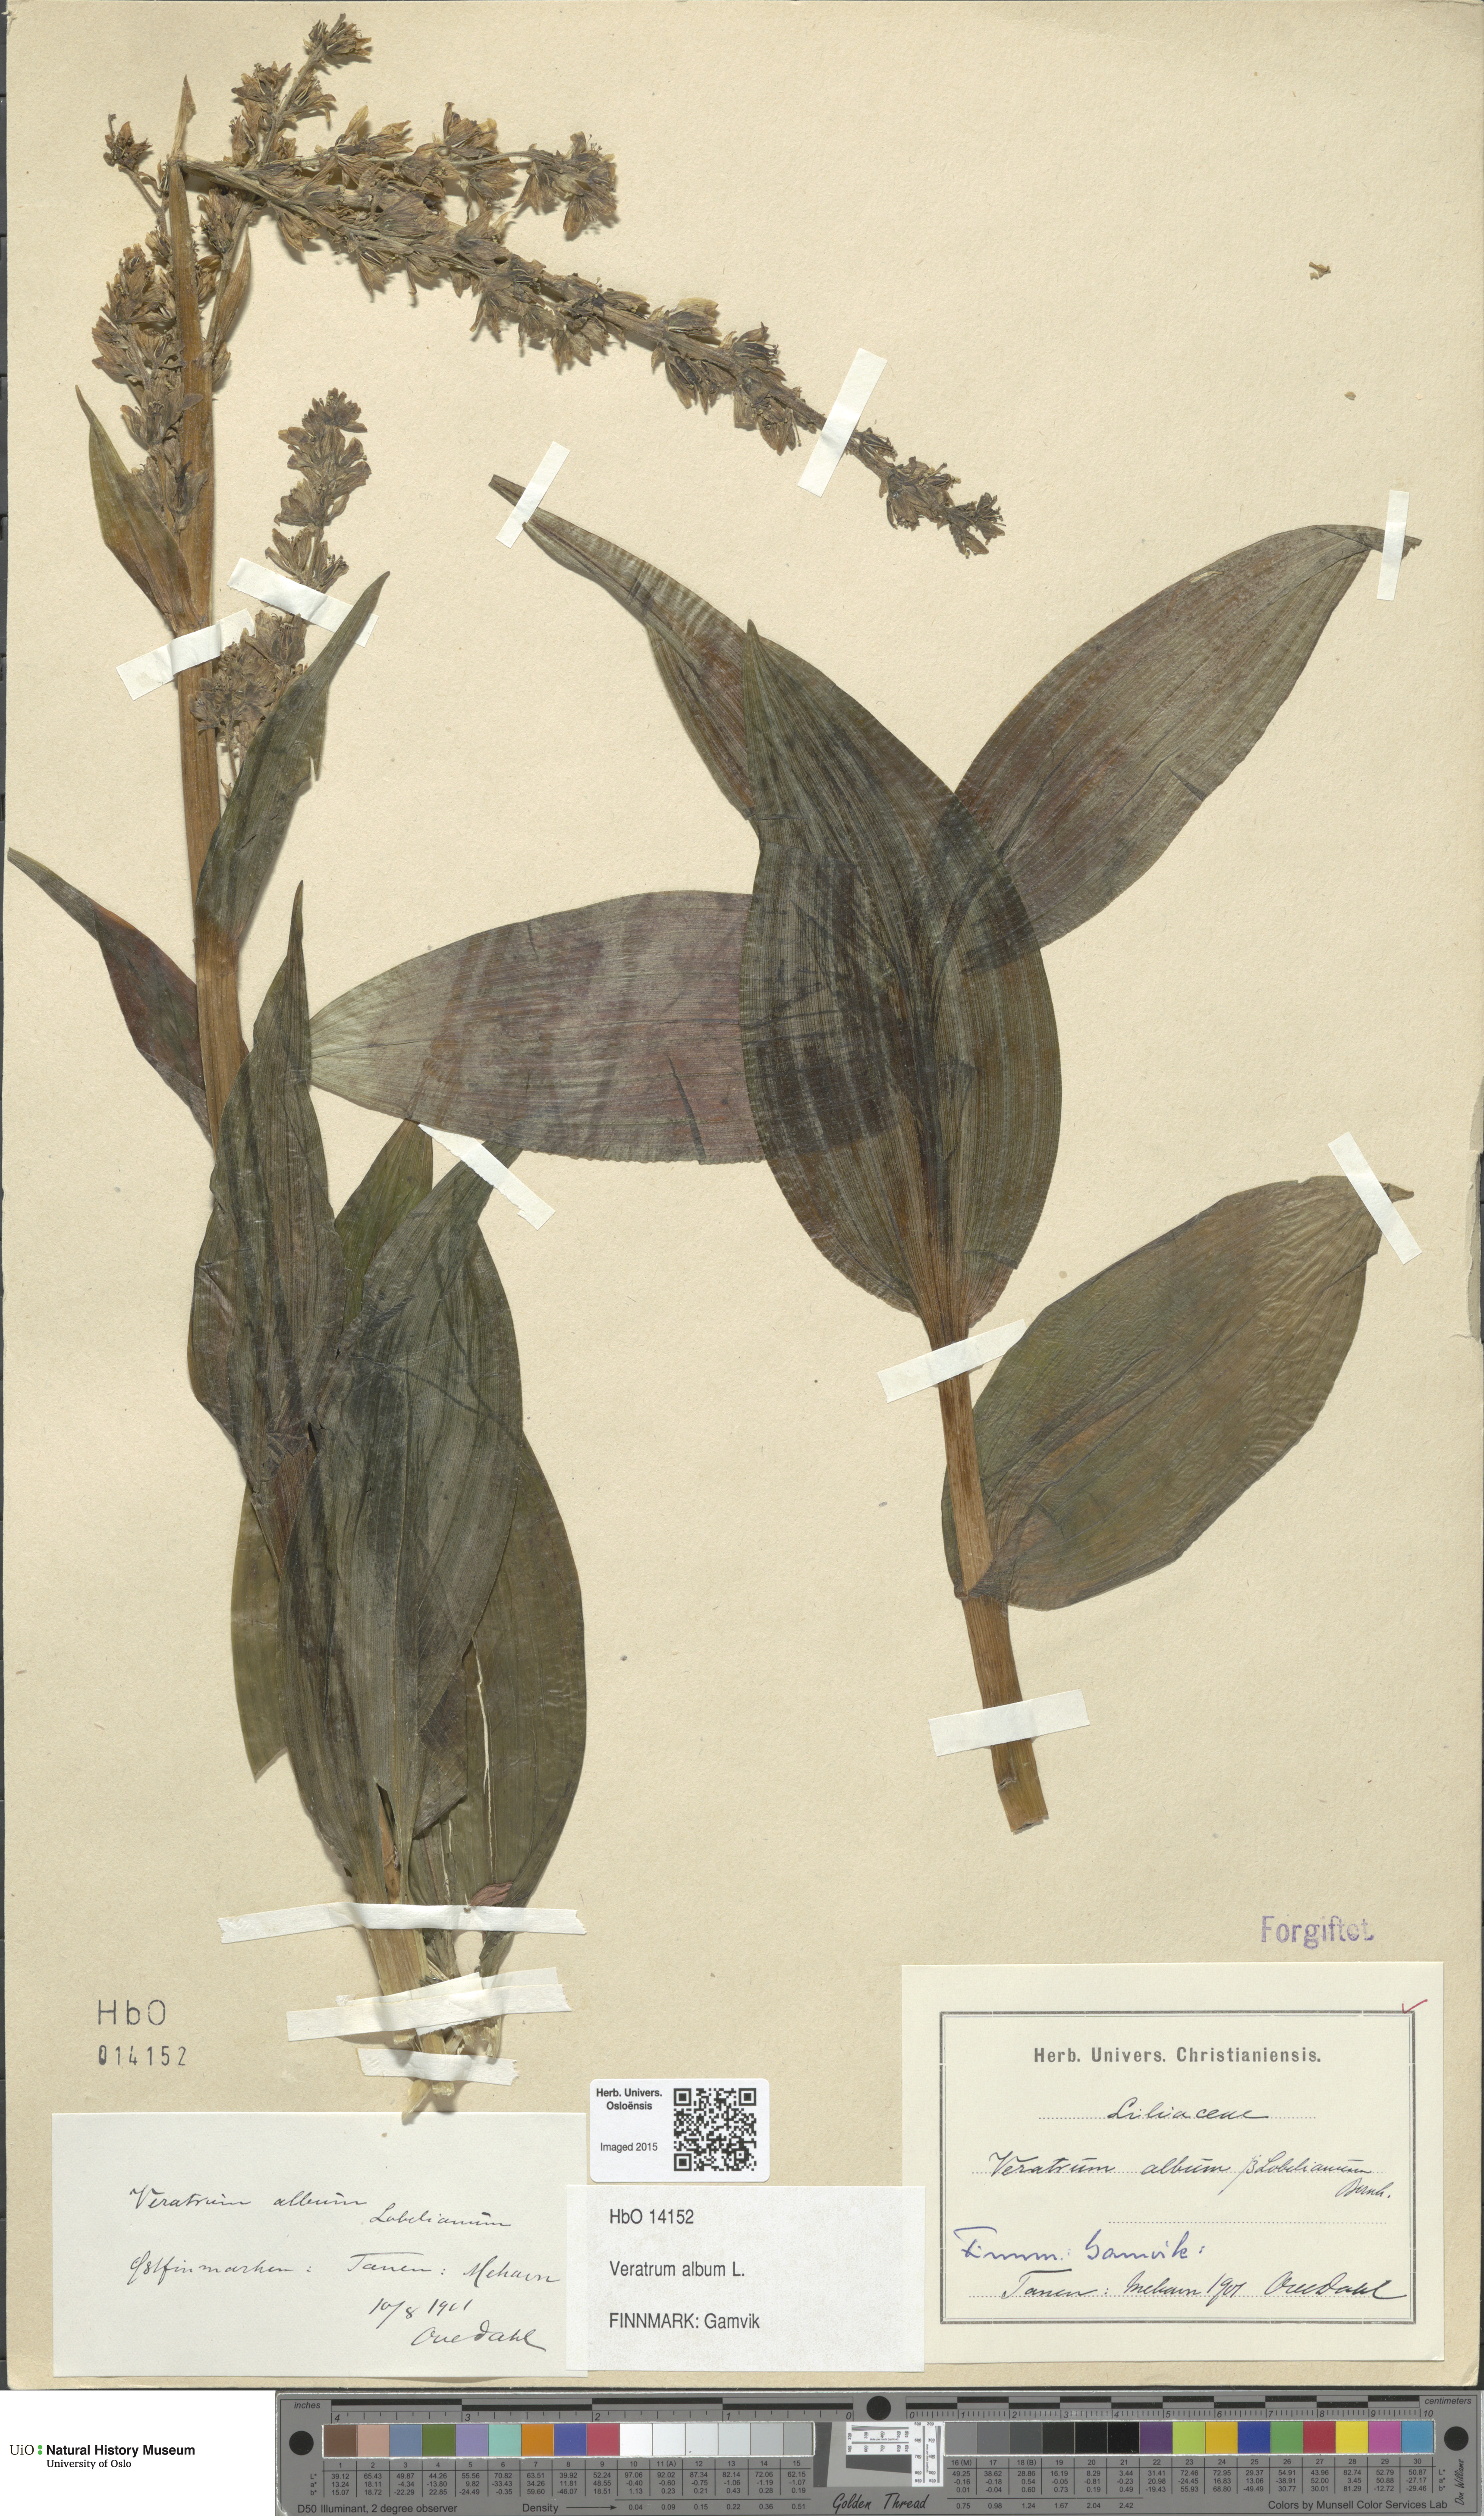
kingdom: Plantae
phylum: Tracheophyta
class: Liliopsida
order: Liliales
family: Melanthiaceae
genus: Veratrum
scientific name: Veratrum album
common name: White veratrum
